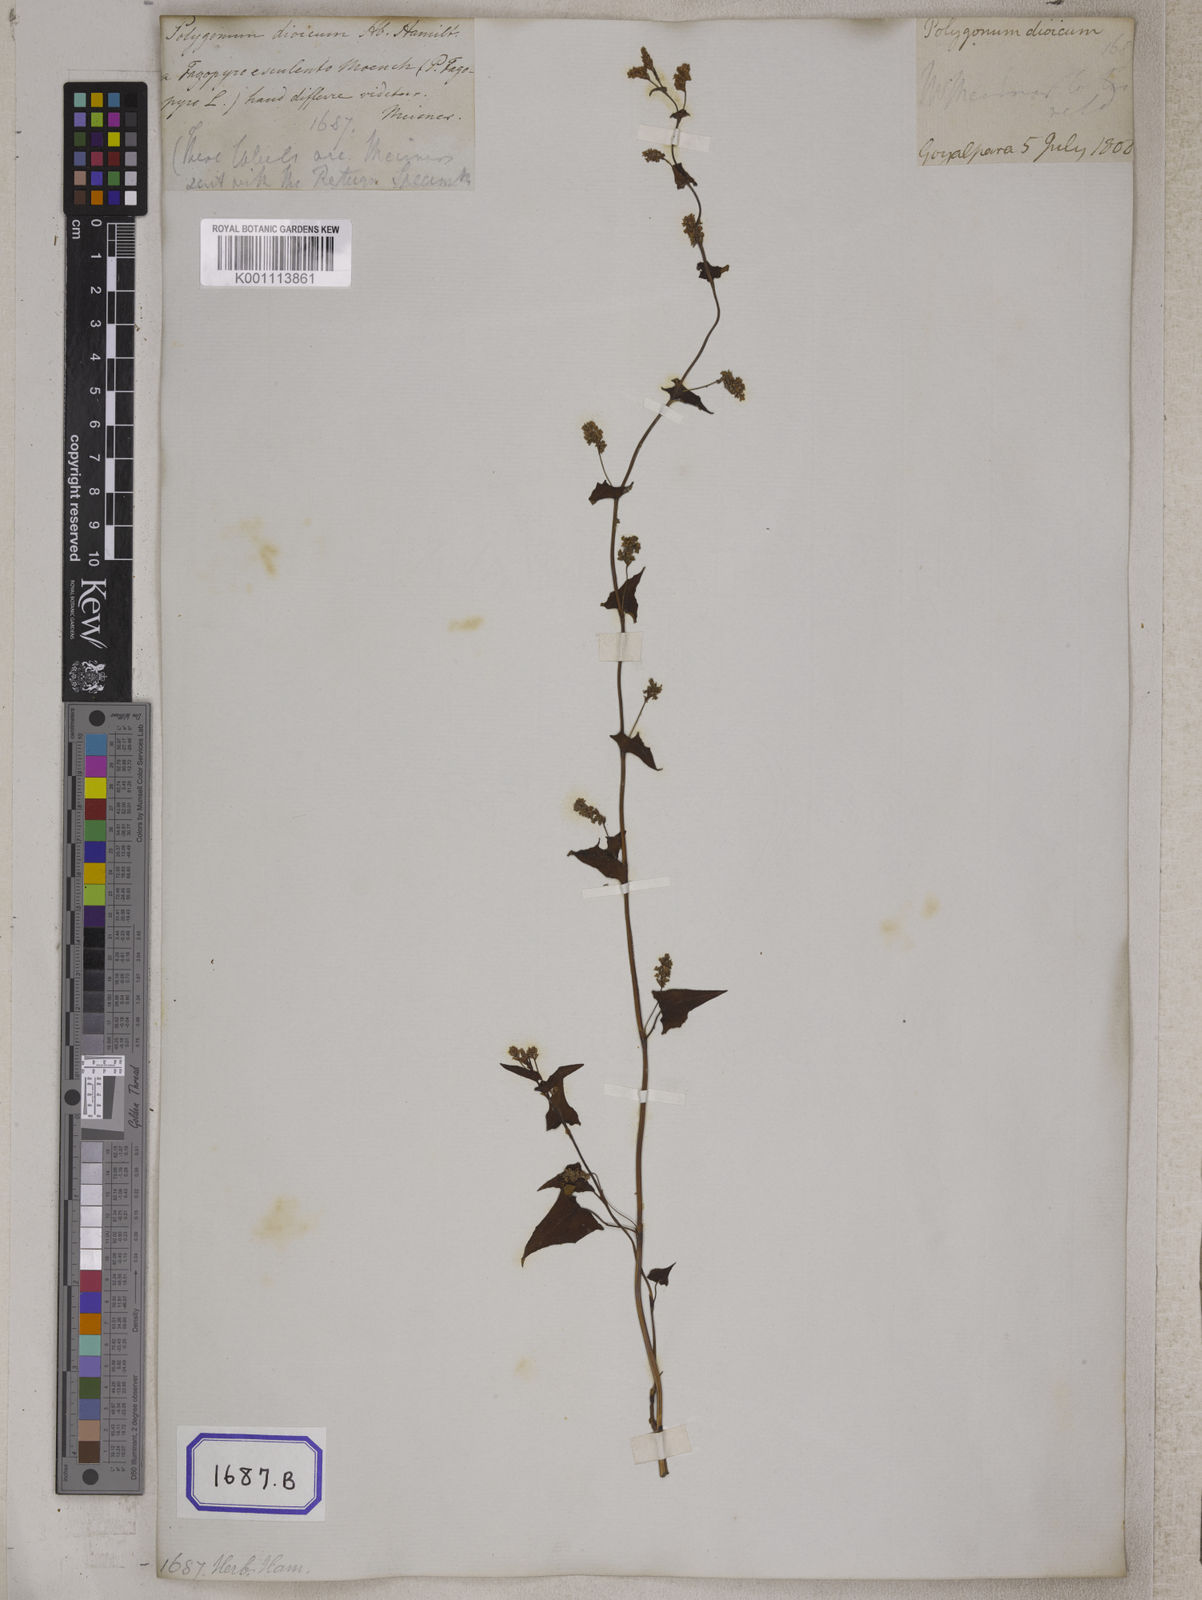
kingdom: Plantae
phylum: Tracheophyta
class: Magnoliopsida
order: Caryophyllales
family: Polygonaceae
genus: Fagopyrum
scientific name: Fagopyrum esculentum
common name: Buckwheat
